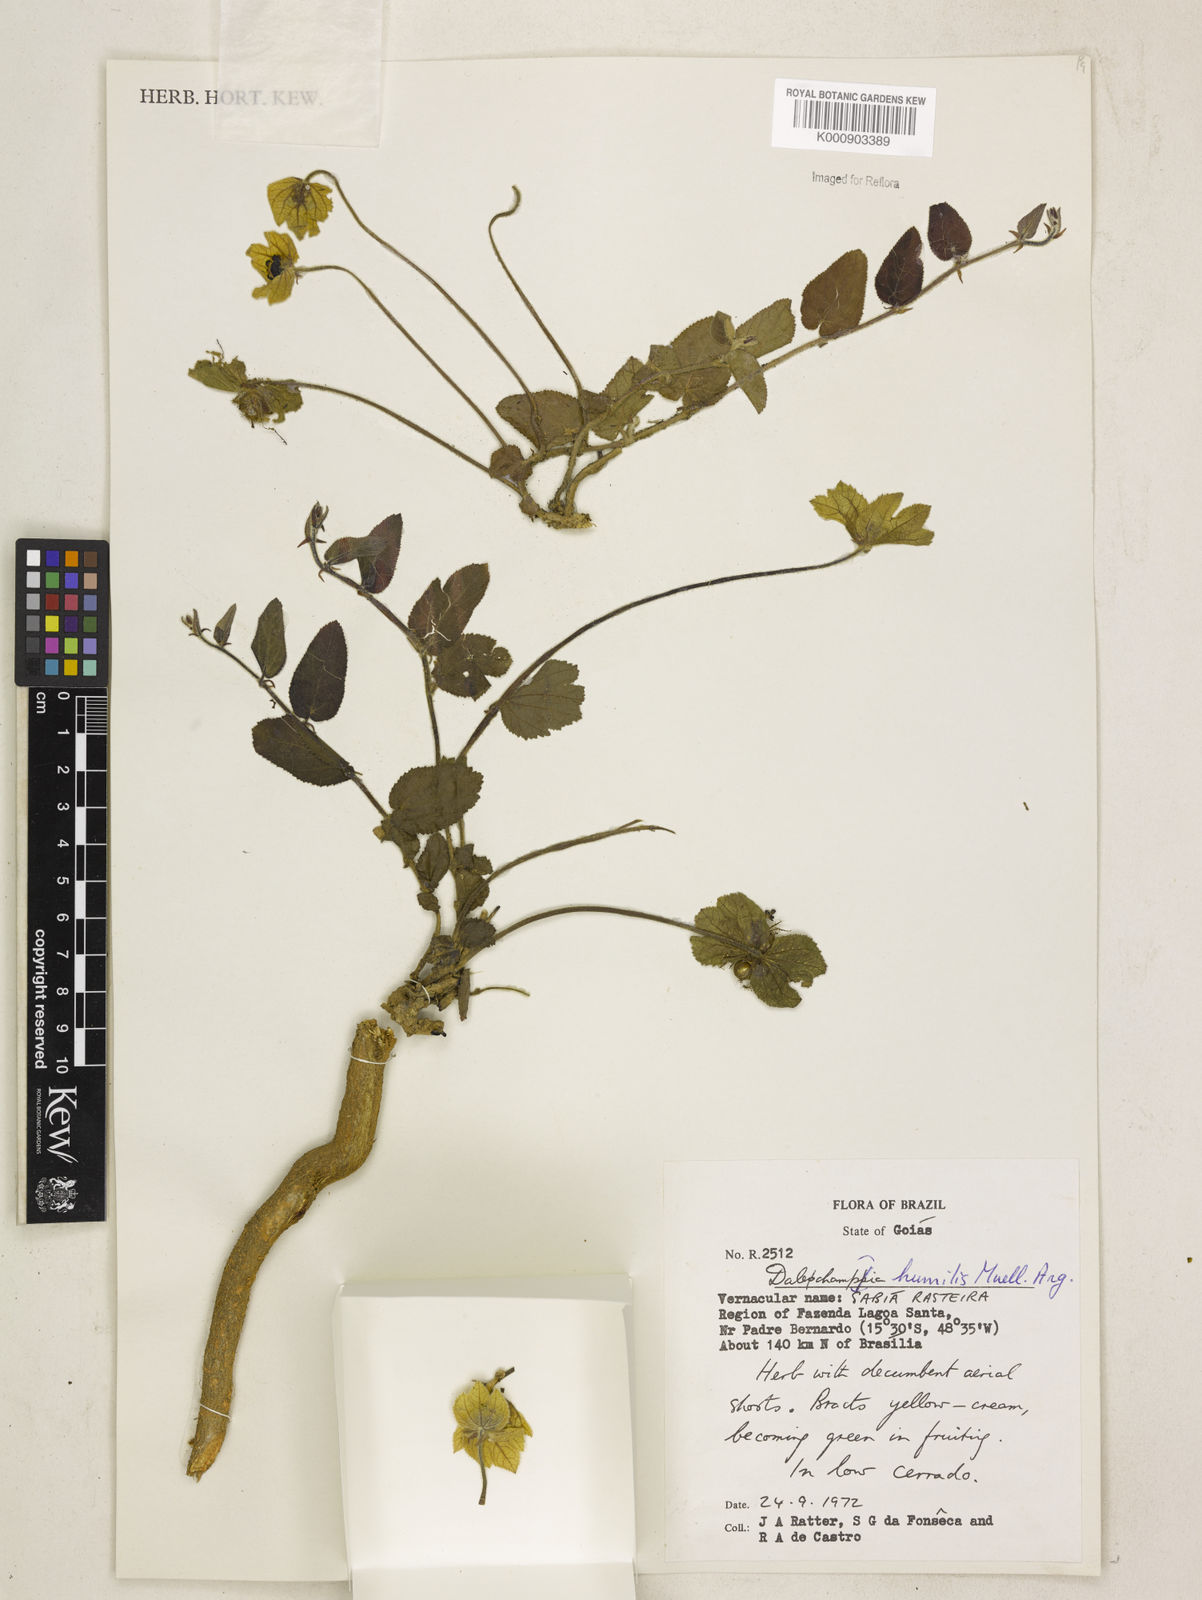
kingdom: Plantae
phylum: Tracheophyta
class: Magnoliopsida
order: Malpighiales
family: Euphorbiaceae
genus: Dalechampia
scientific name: Dalechampia
